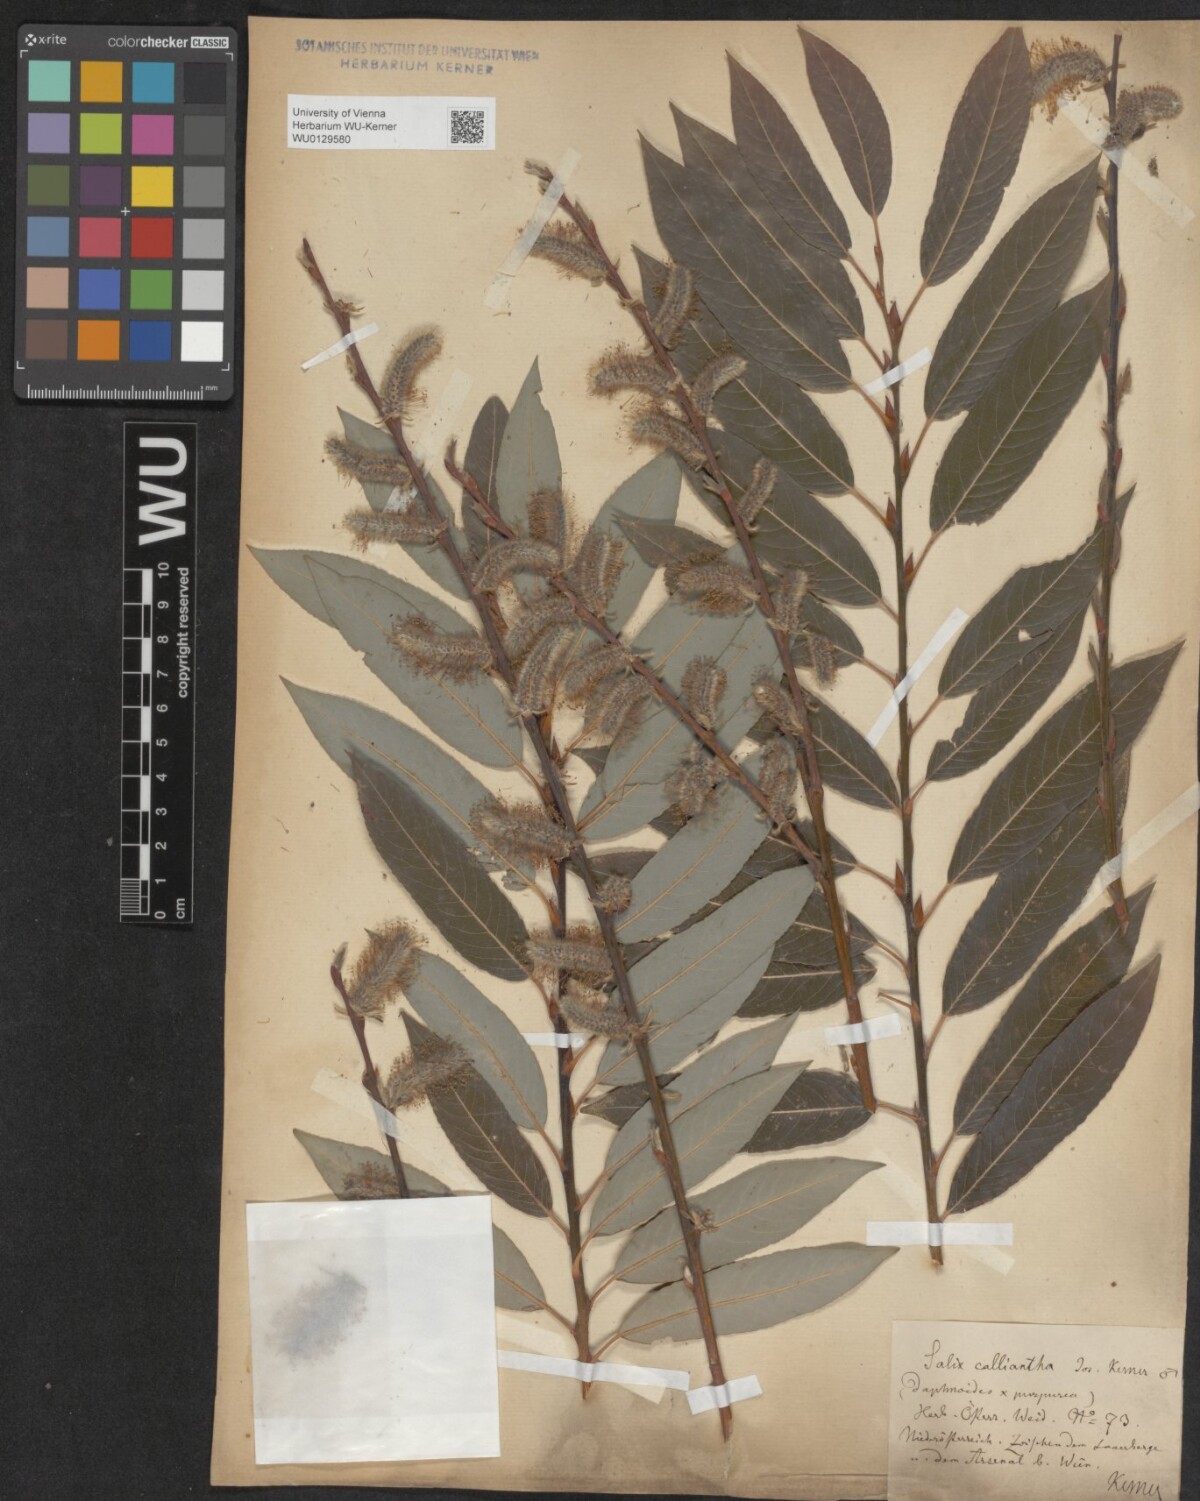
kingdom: Plantae
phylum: Tracheophyta
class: Magnoliopsida
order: Malpighiales
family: Salicaceae
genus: Salix
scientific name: Salix calliantha
